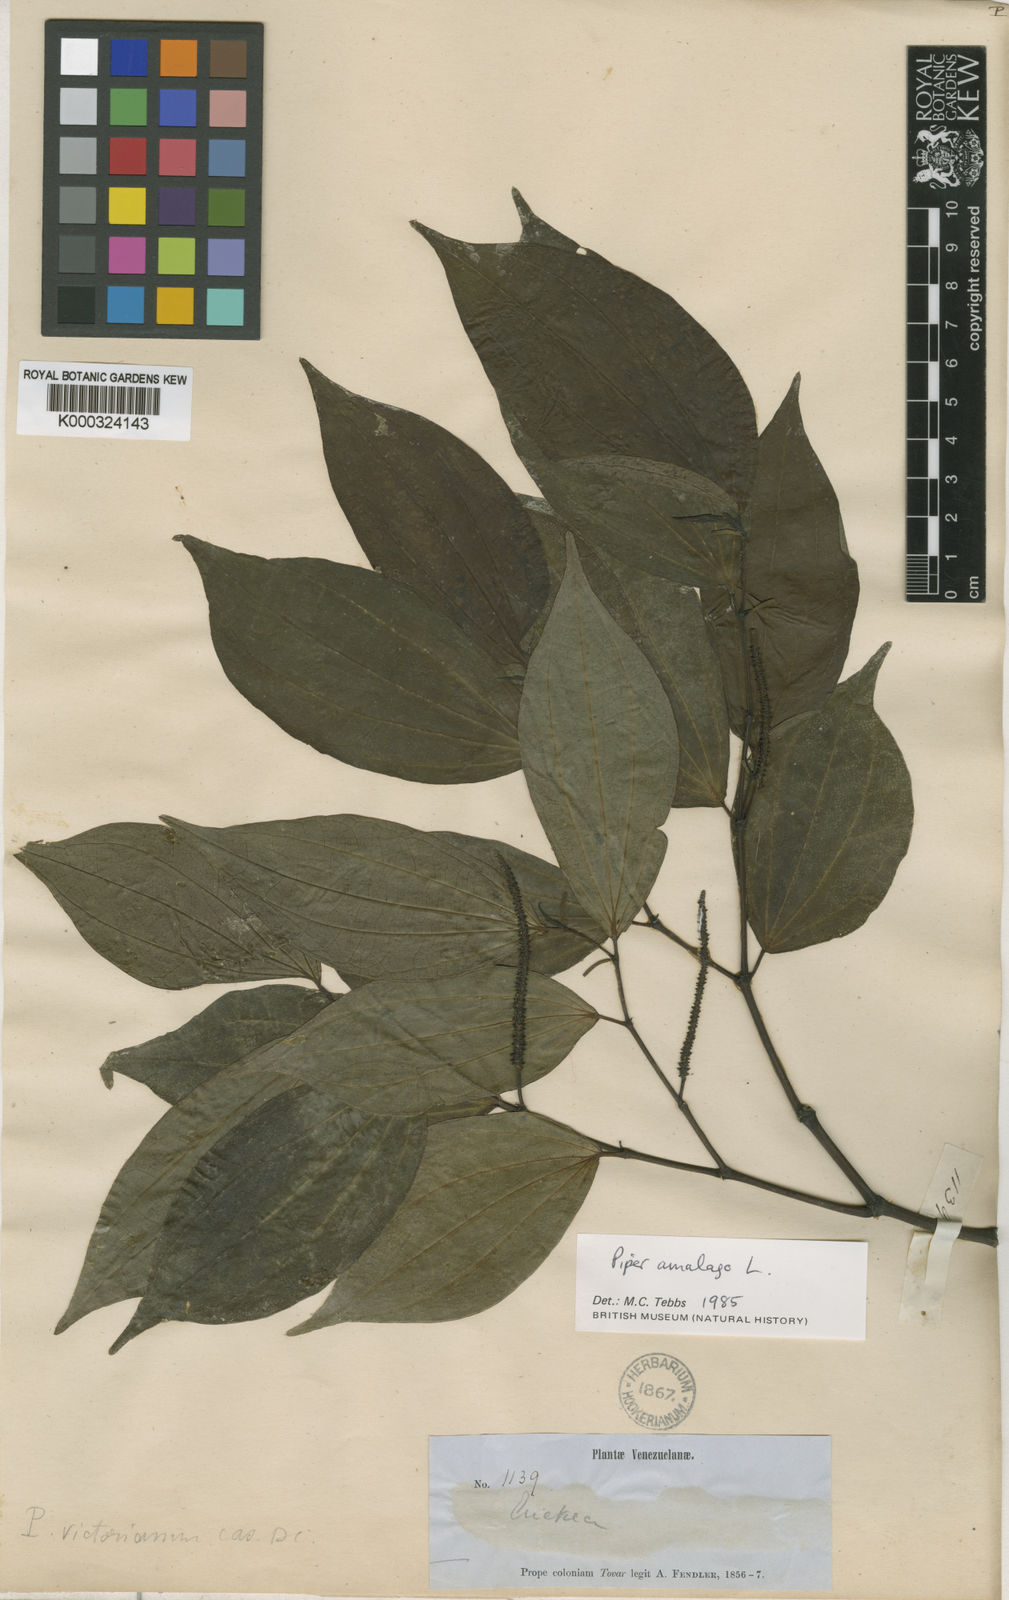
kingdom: Plantae
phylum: Tracheophyta
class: Magnoliopsida
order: Piperales
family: Piperaceae
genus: Piper
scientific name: Piper amalago
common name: Pepper-elder
